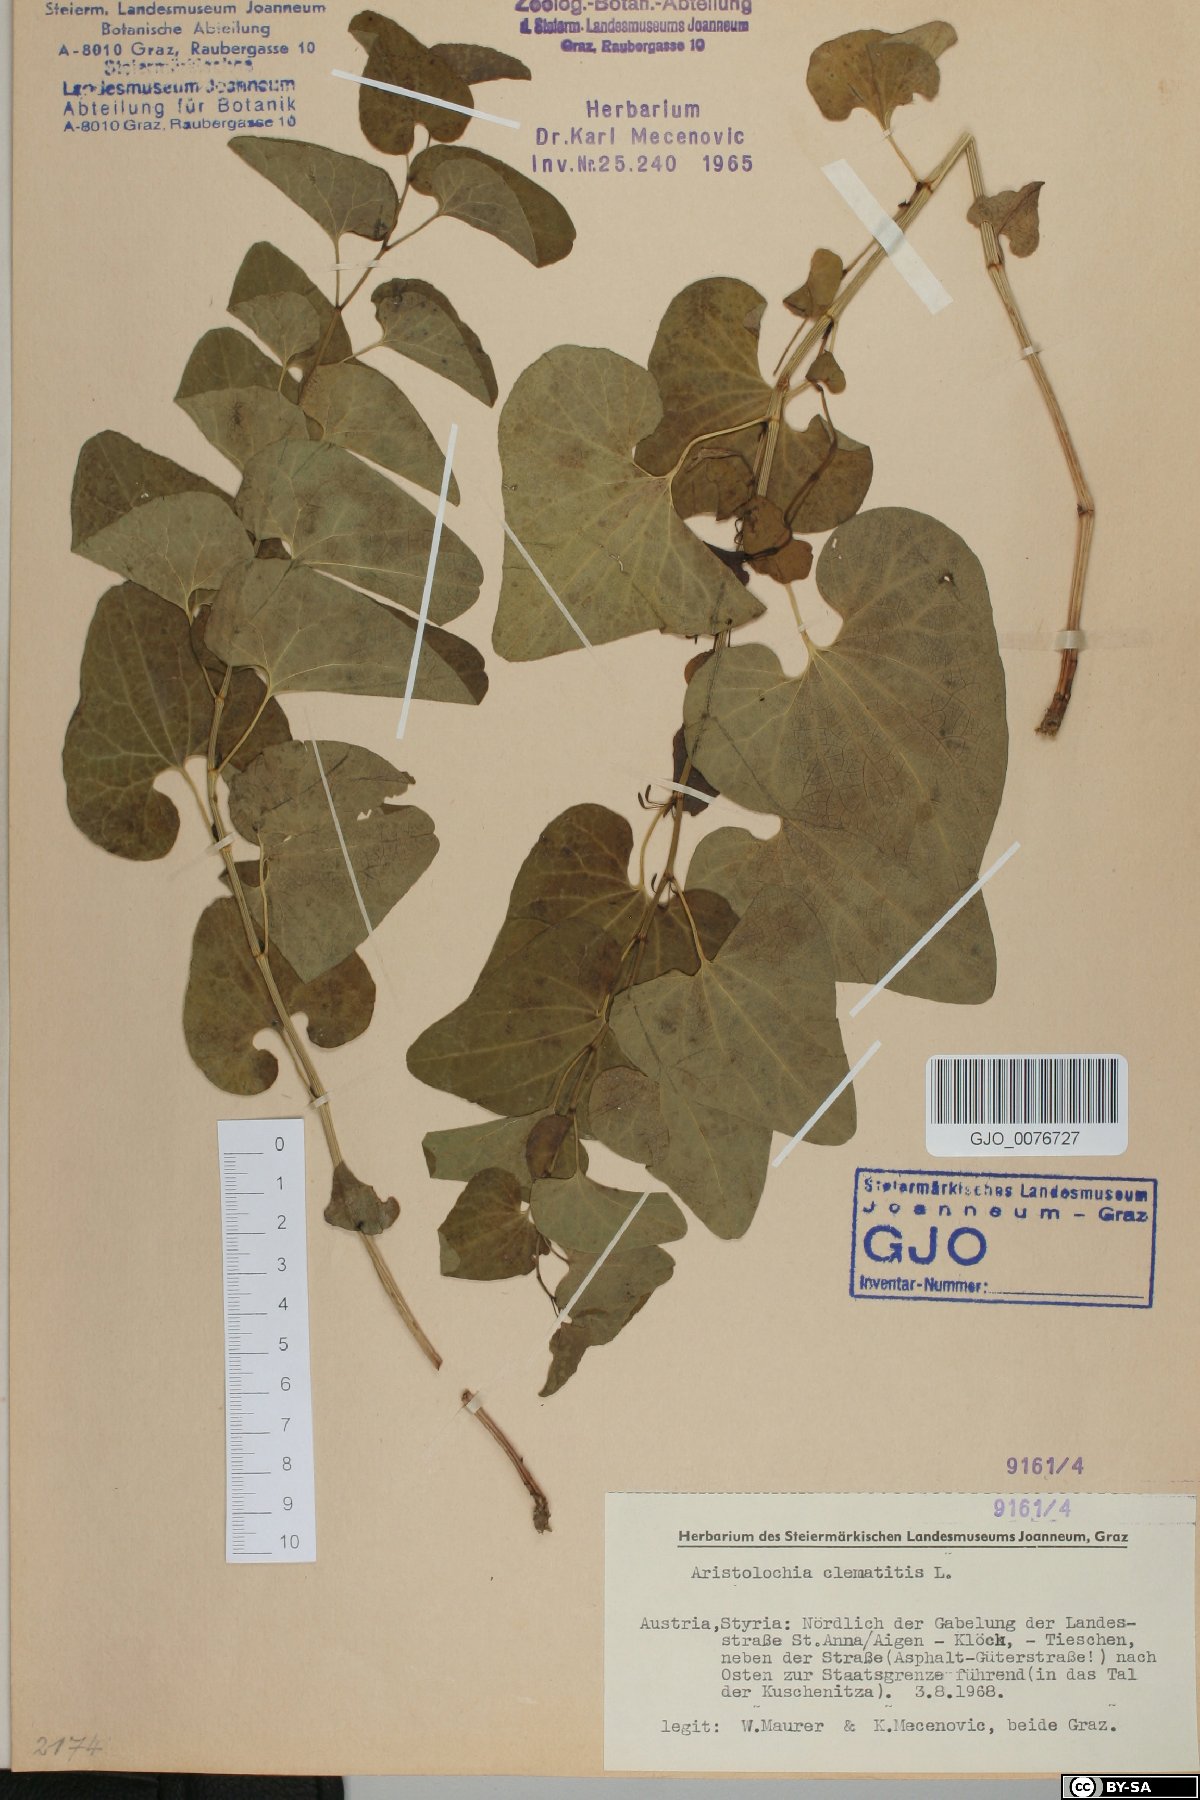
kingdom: Plantae
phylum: Tracheophyta
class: Magnoliopsida
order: Piperales
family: Aristolochiaceae
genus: Aristolochia
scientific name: Aristolochia clematitis
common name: Birthwort
